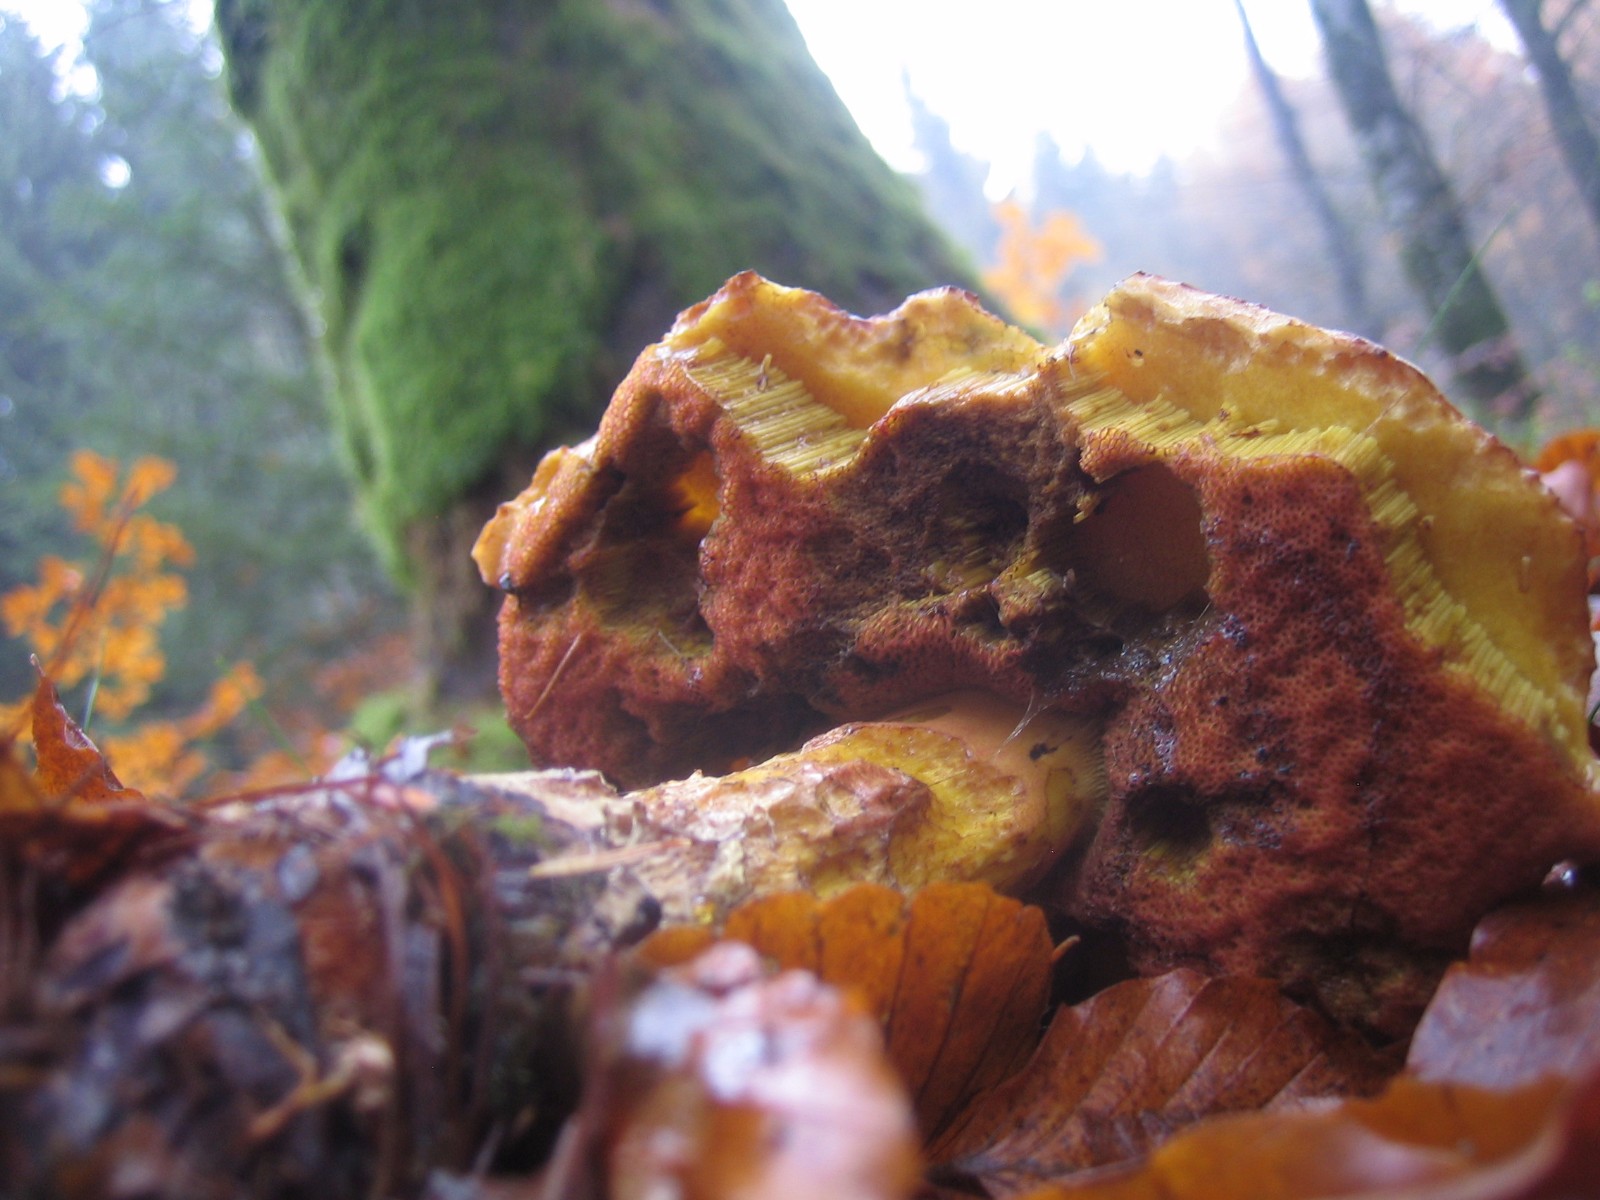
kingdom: Fungi
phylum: Basidiomycota
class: Agaricomycetes
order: Boletales
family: Boletaceae
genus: Neoboletus
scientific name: Neoboletus erythropus
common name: punktstokket indigorørhat
